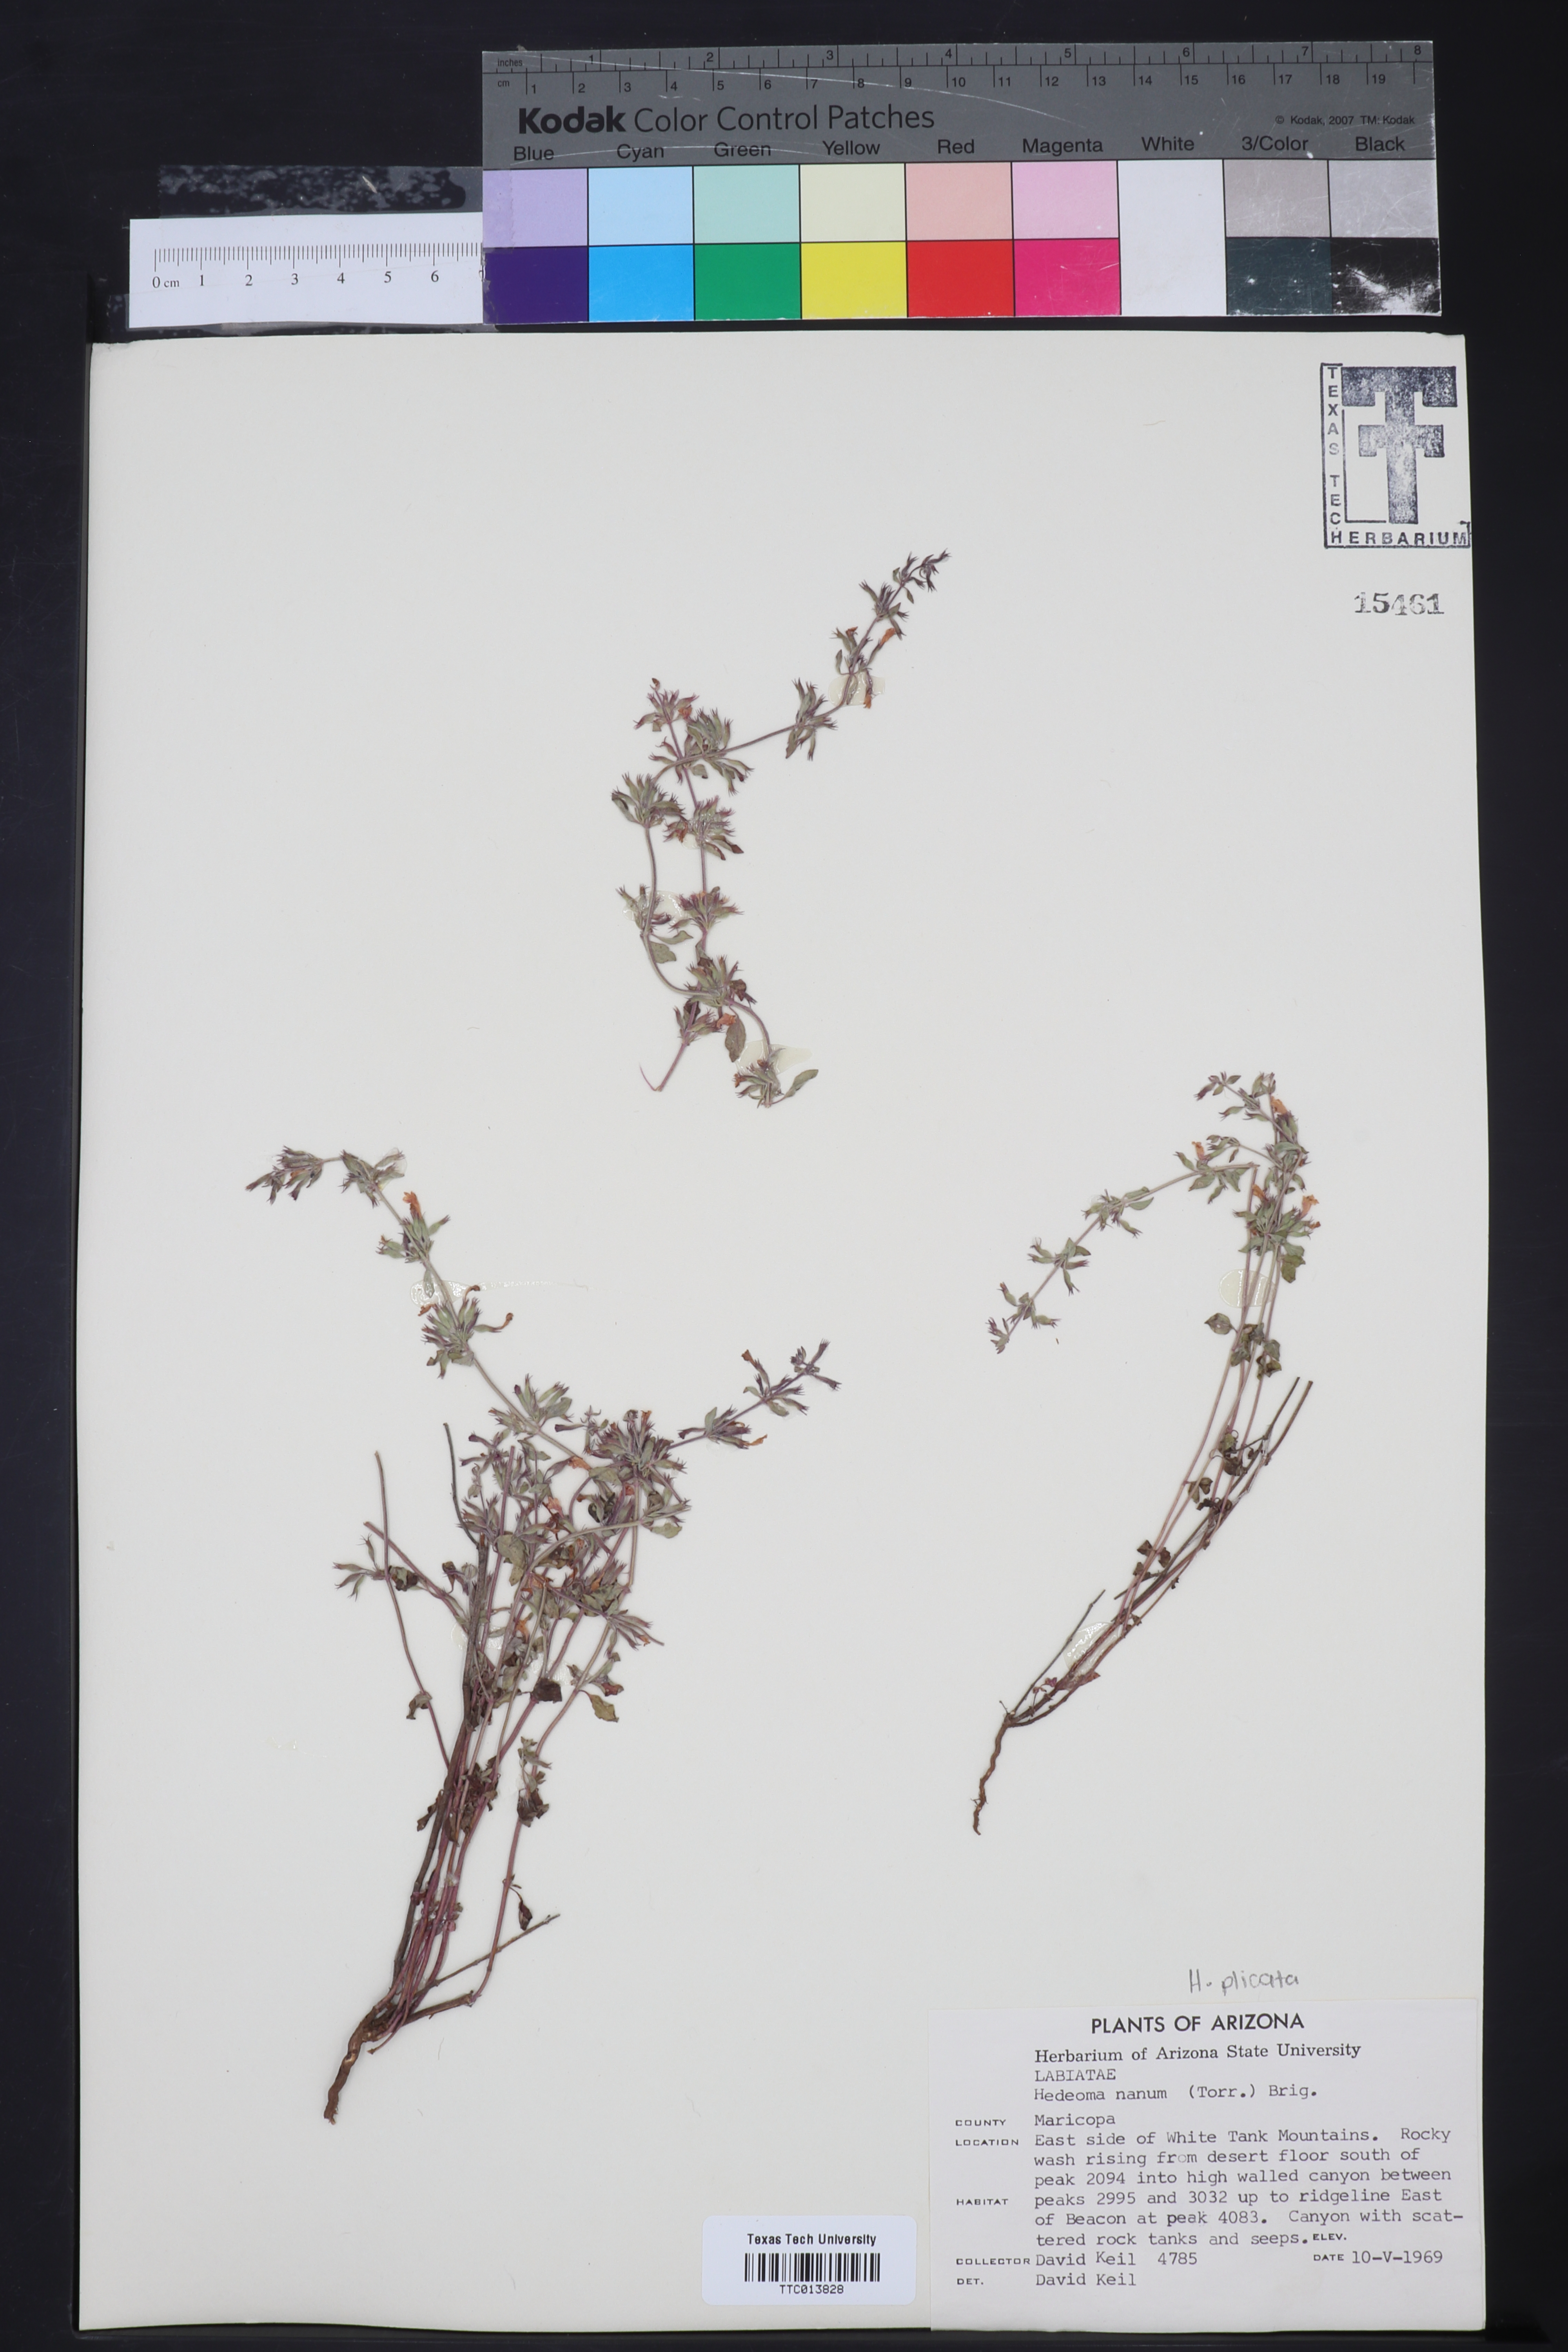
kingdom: Plantae
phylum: Tracheophyta
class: Magnoliopsida
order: Lamiales
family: Lamiaceae
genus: Hedeoma
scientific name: Hedeoma nana
